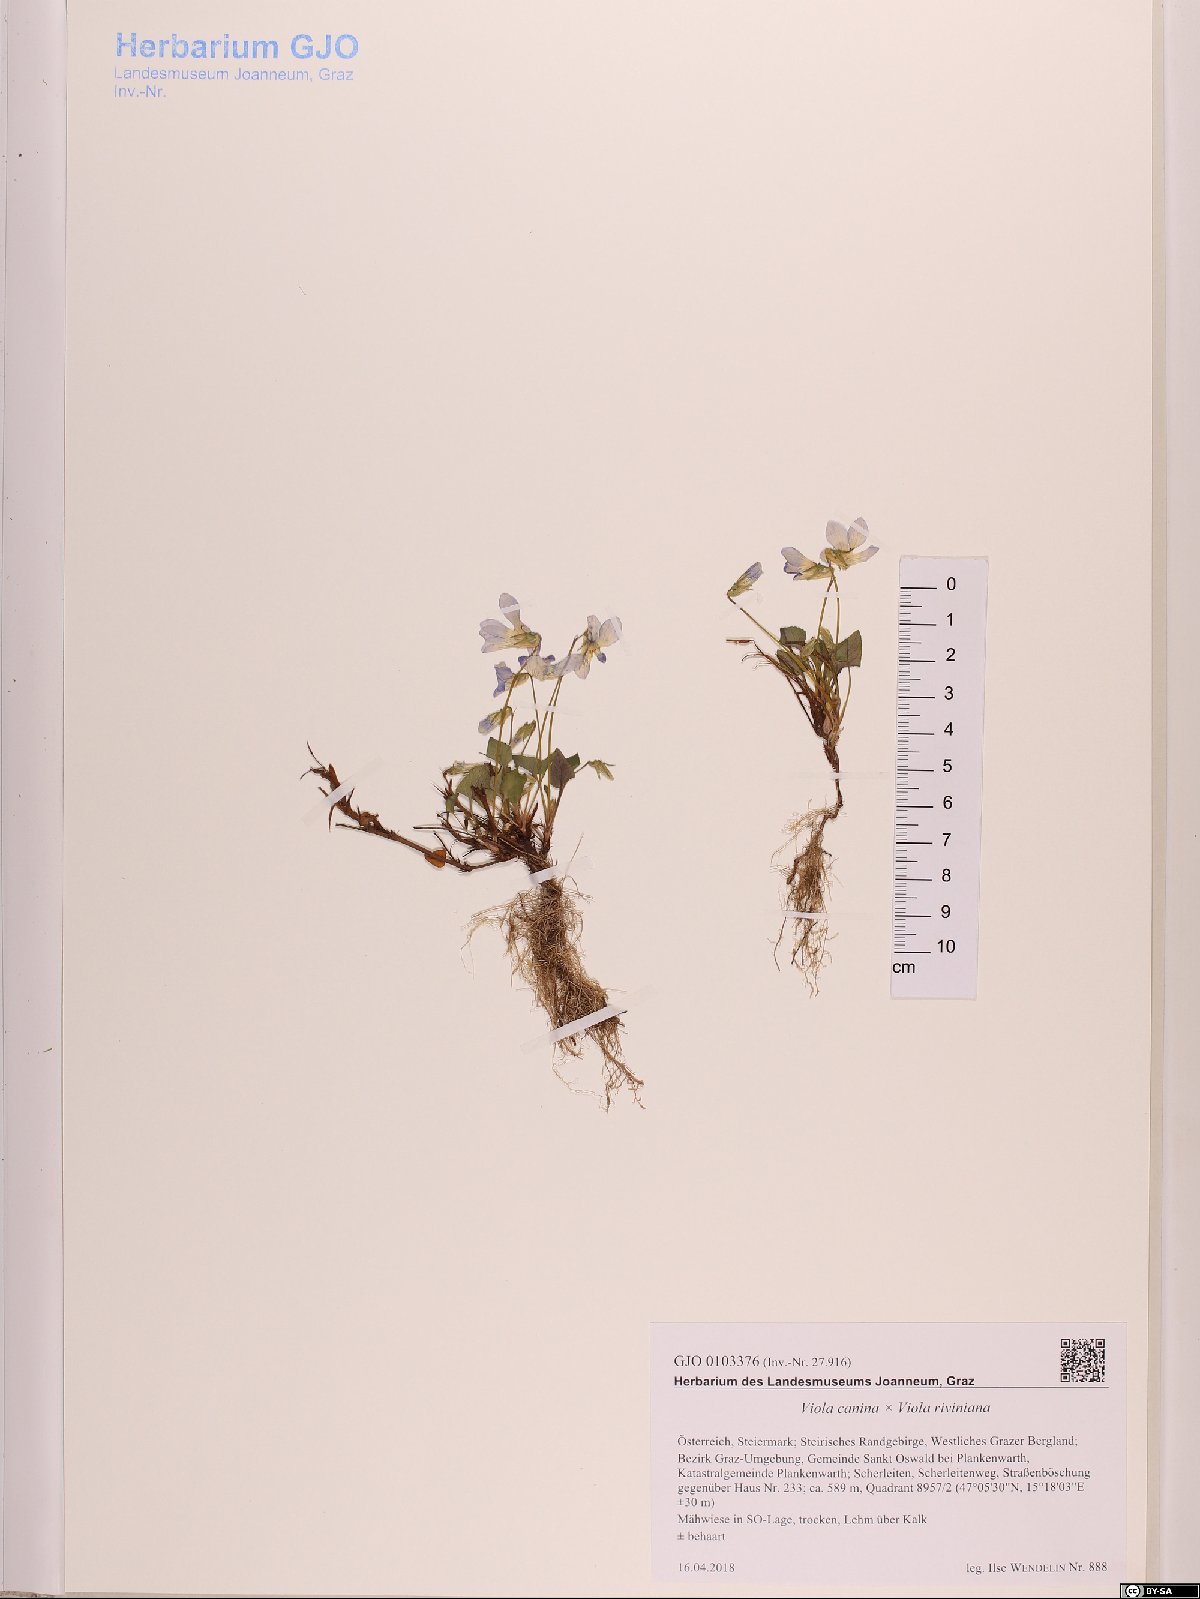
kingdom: Plantae
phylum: Tracheophyta
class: Magnoliopsida
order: Malpighiales
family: Violaceae
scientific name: Violaceae
